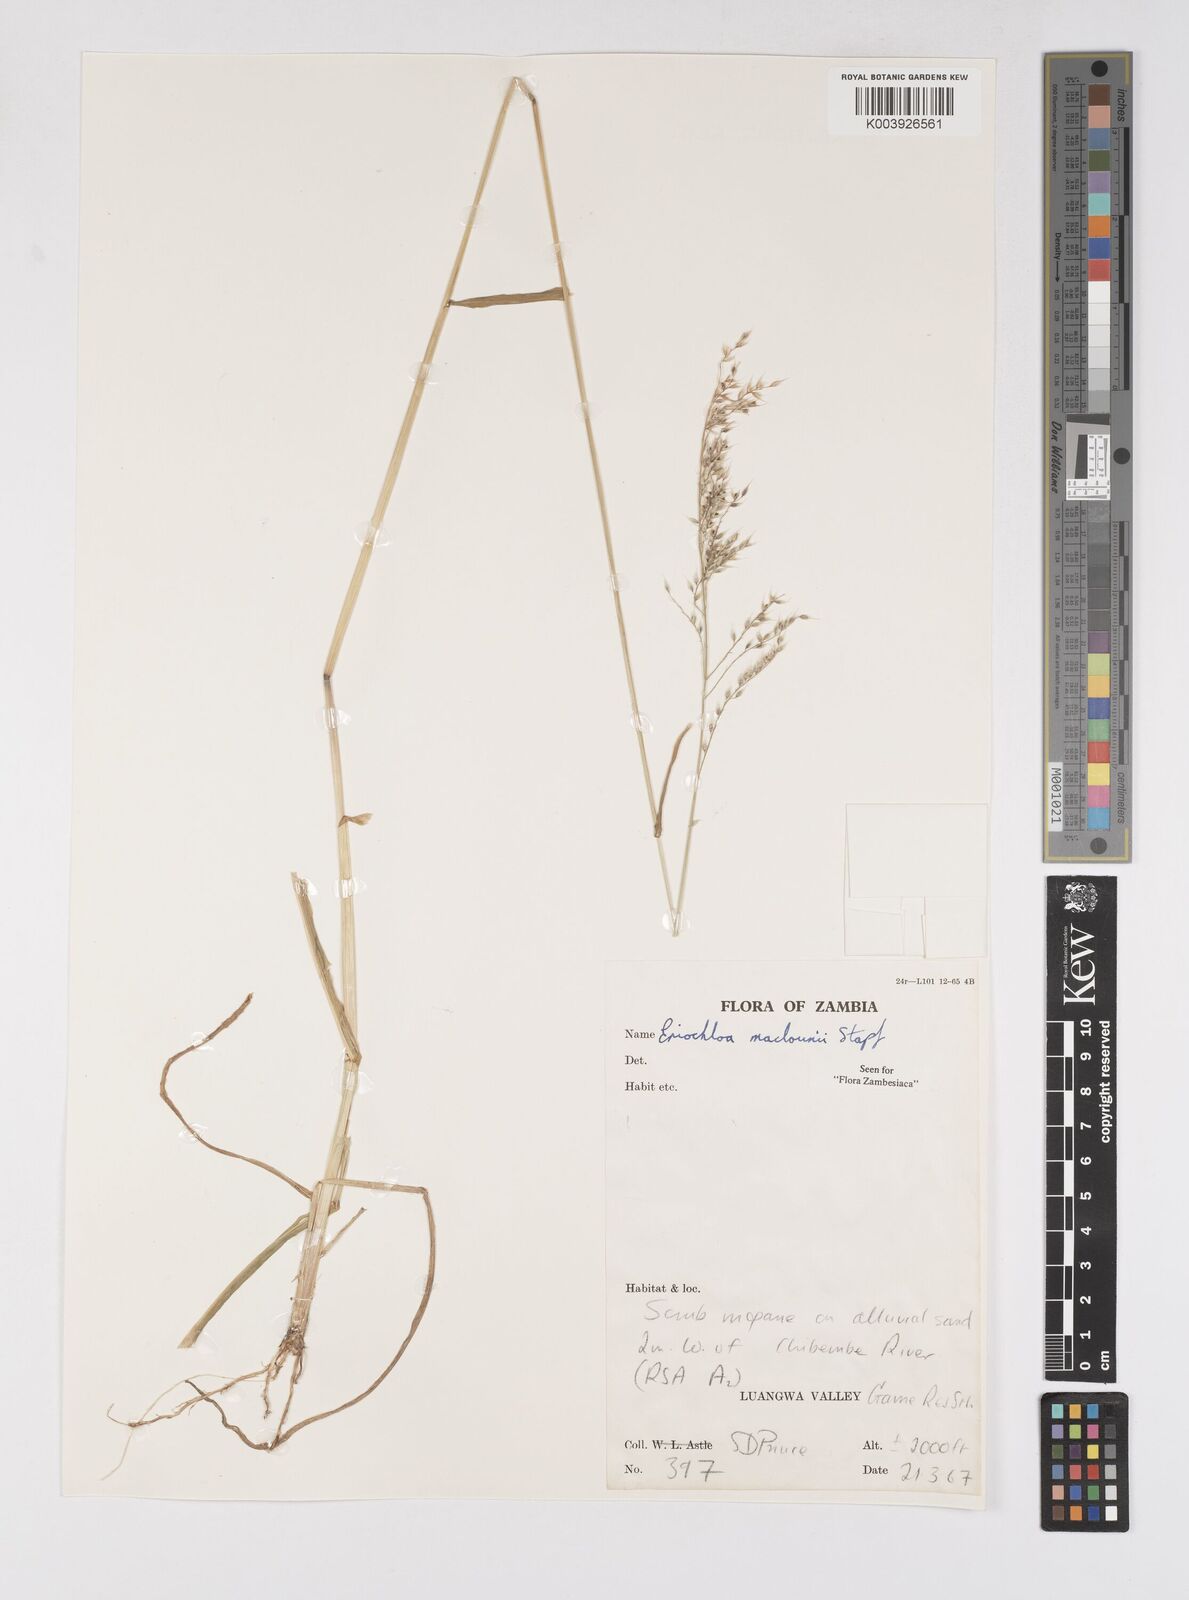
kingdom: Plantae
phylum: Tracheophyta
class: Liliopsida
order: Poales
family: Poaceae
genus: Eriochloa
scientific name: Eriochloa macclounii
